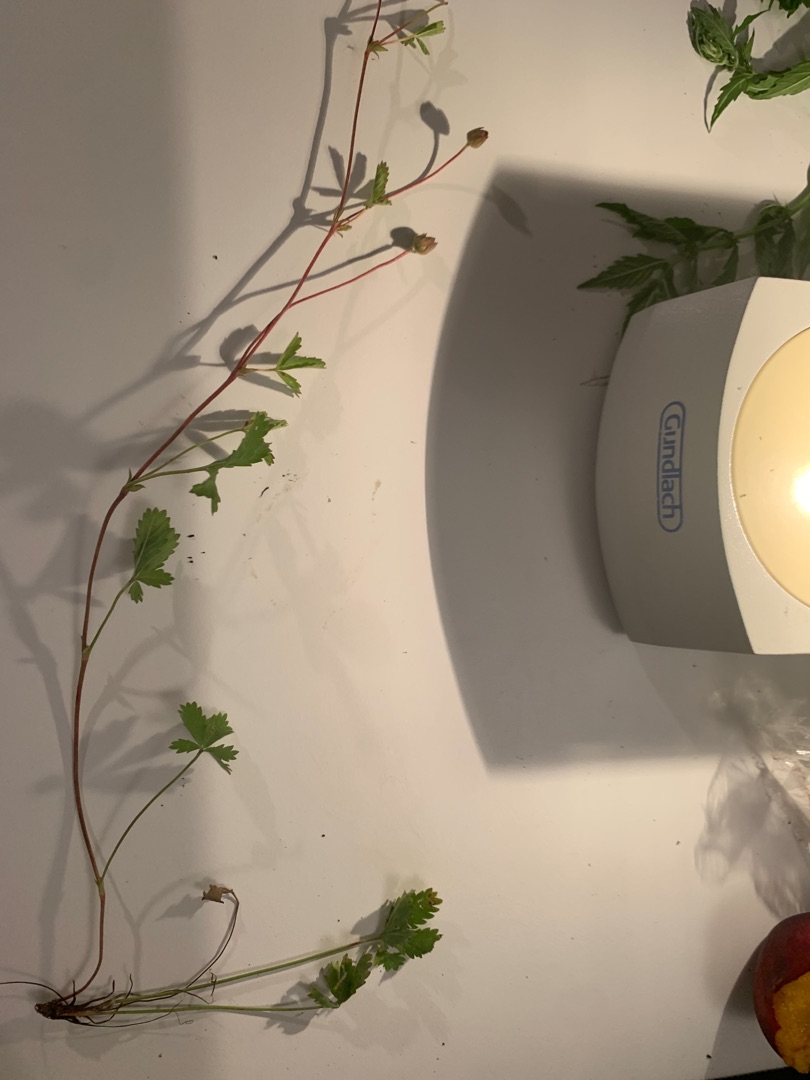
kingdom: Plantae
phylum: Tracheophyta
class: Magnoliopsida
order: Rosales
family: Rosaceae
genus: Potentilla
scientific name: Potentilla reptans
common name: Krybende potentil
